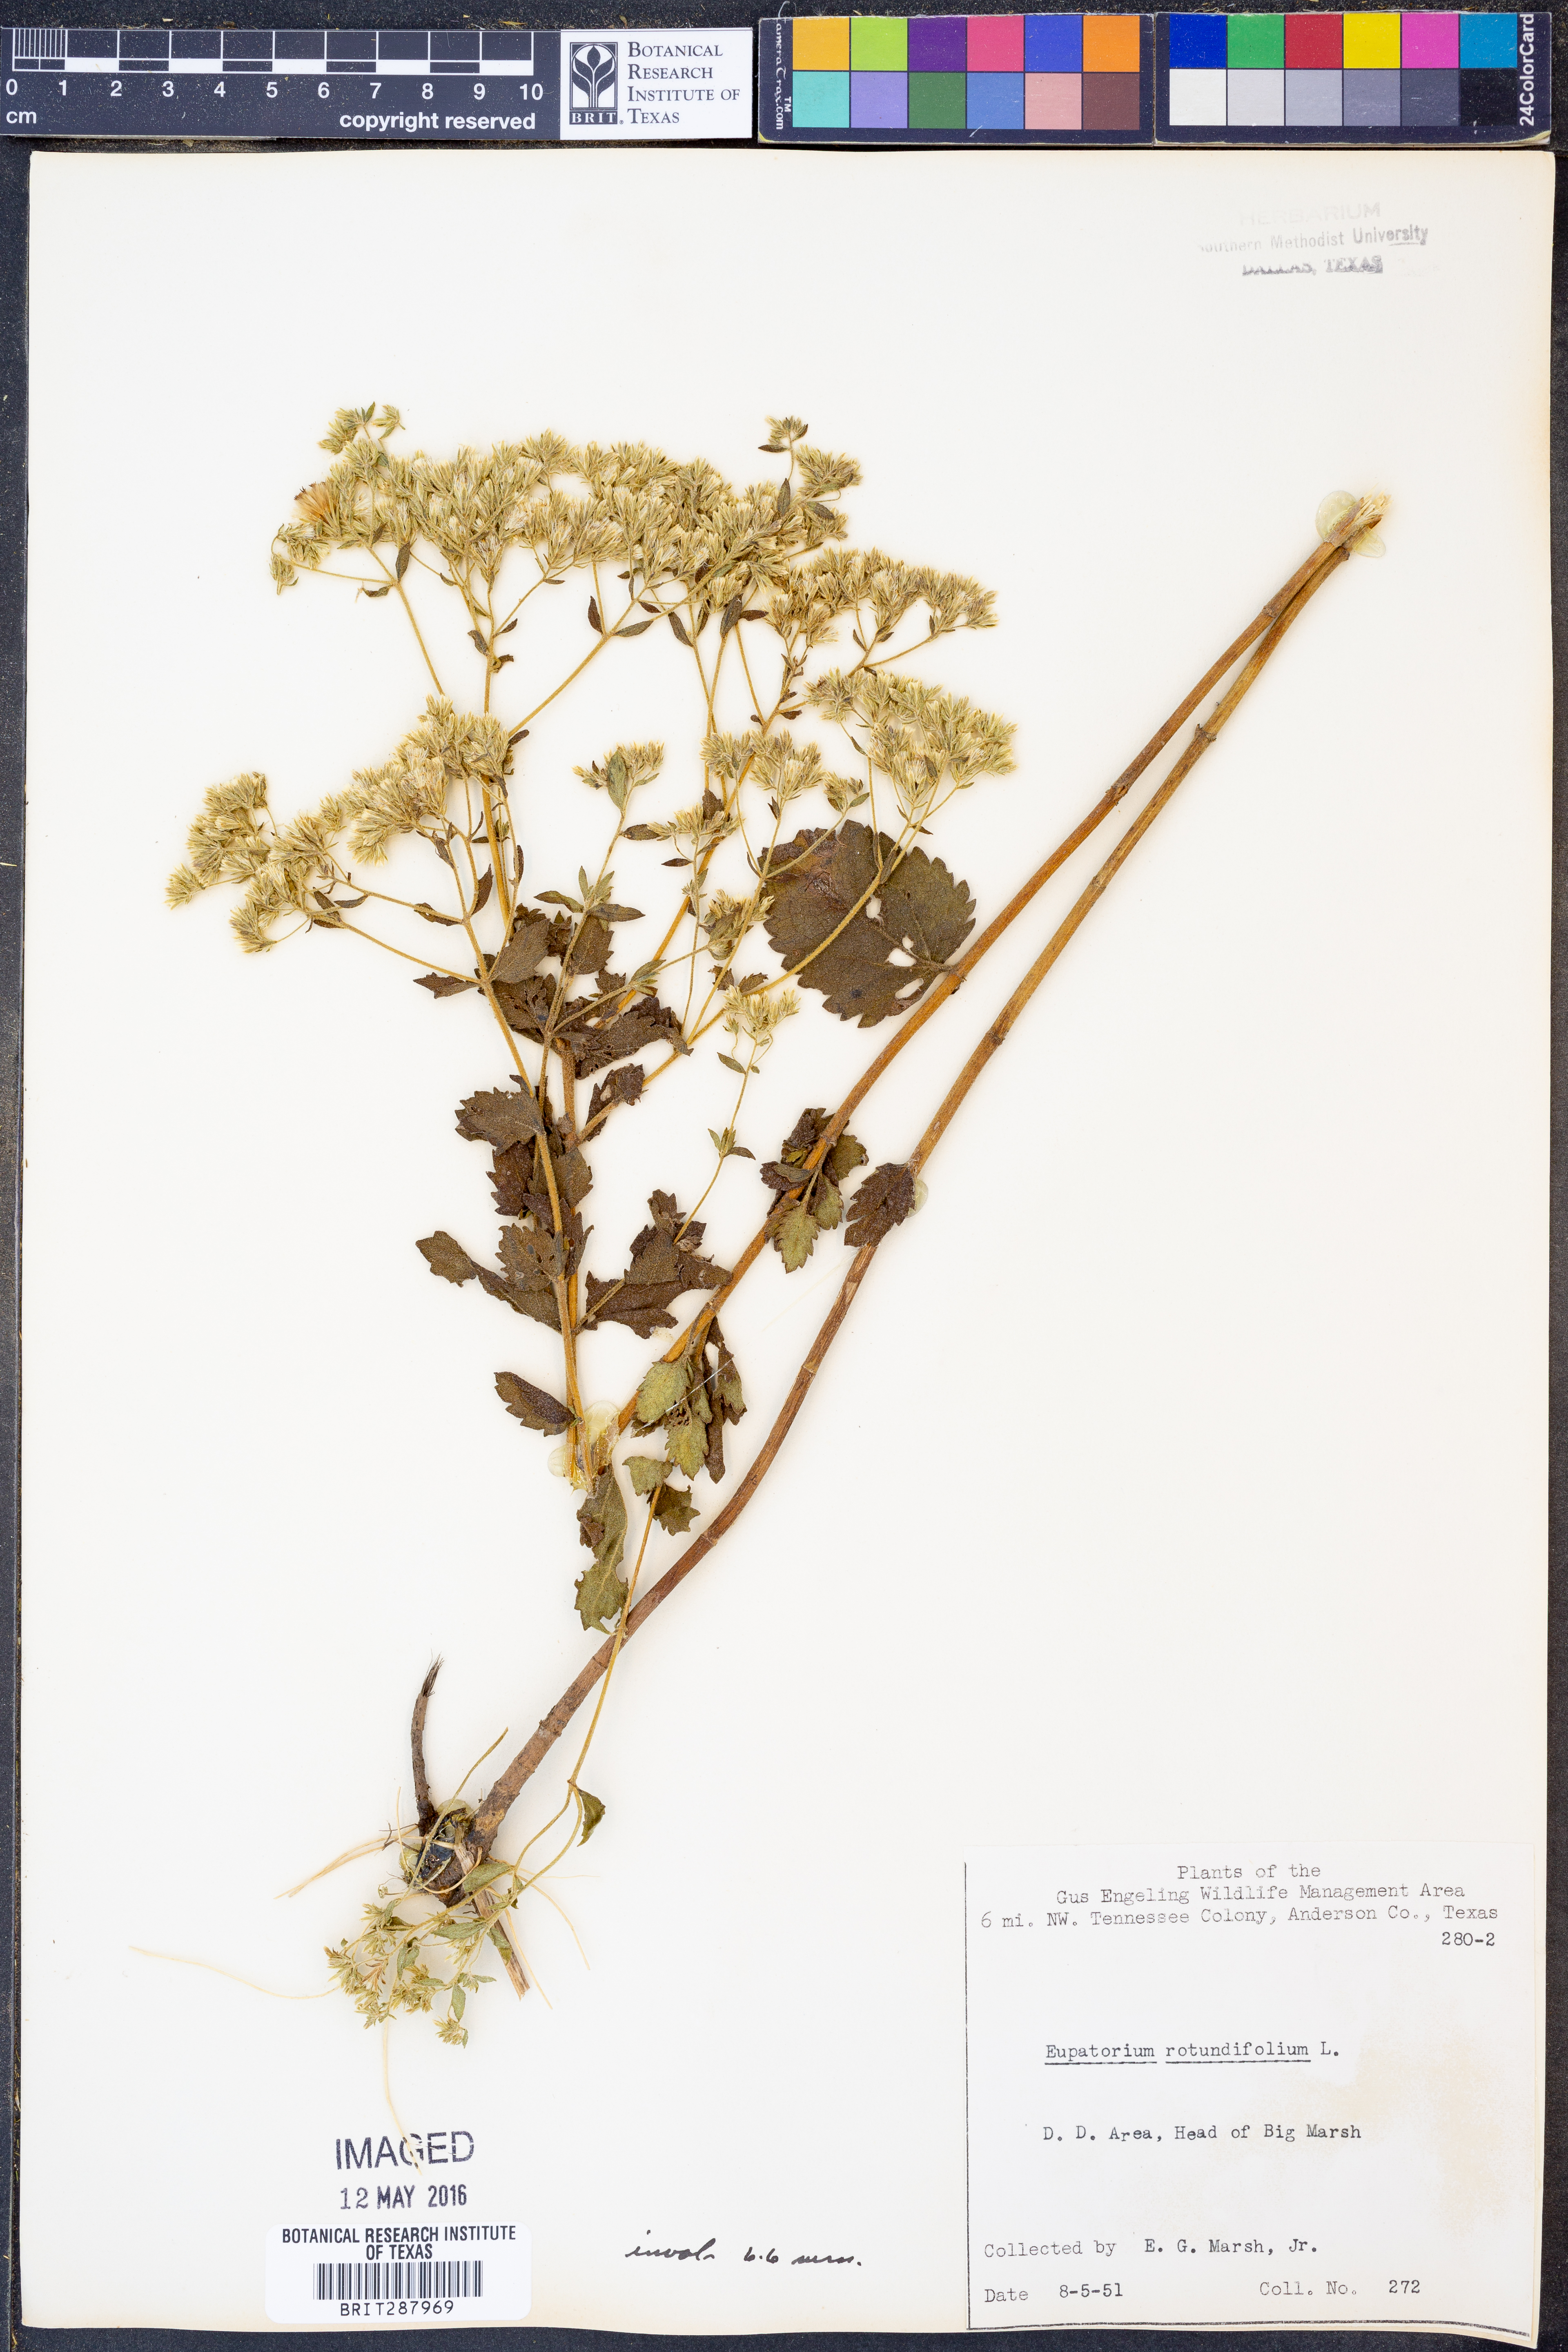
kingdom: Plantae
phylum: Tracheophyta
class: Magnoliopsida
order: Asterales
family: Asteraceae
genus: Eupatorium
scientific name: Eupatorium rotundifolium
